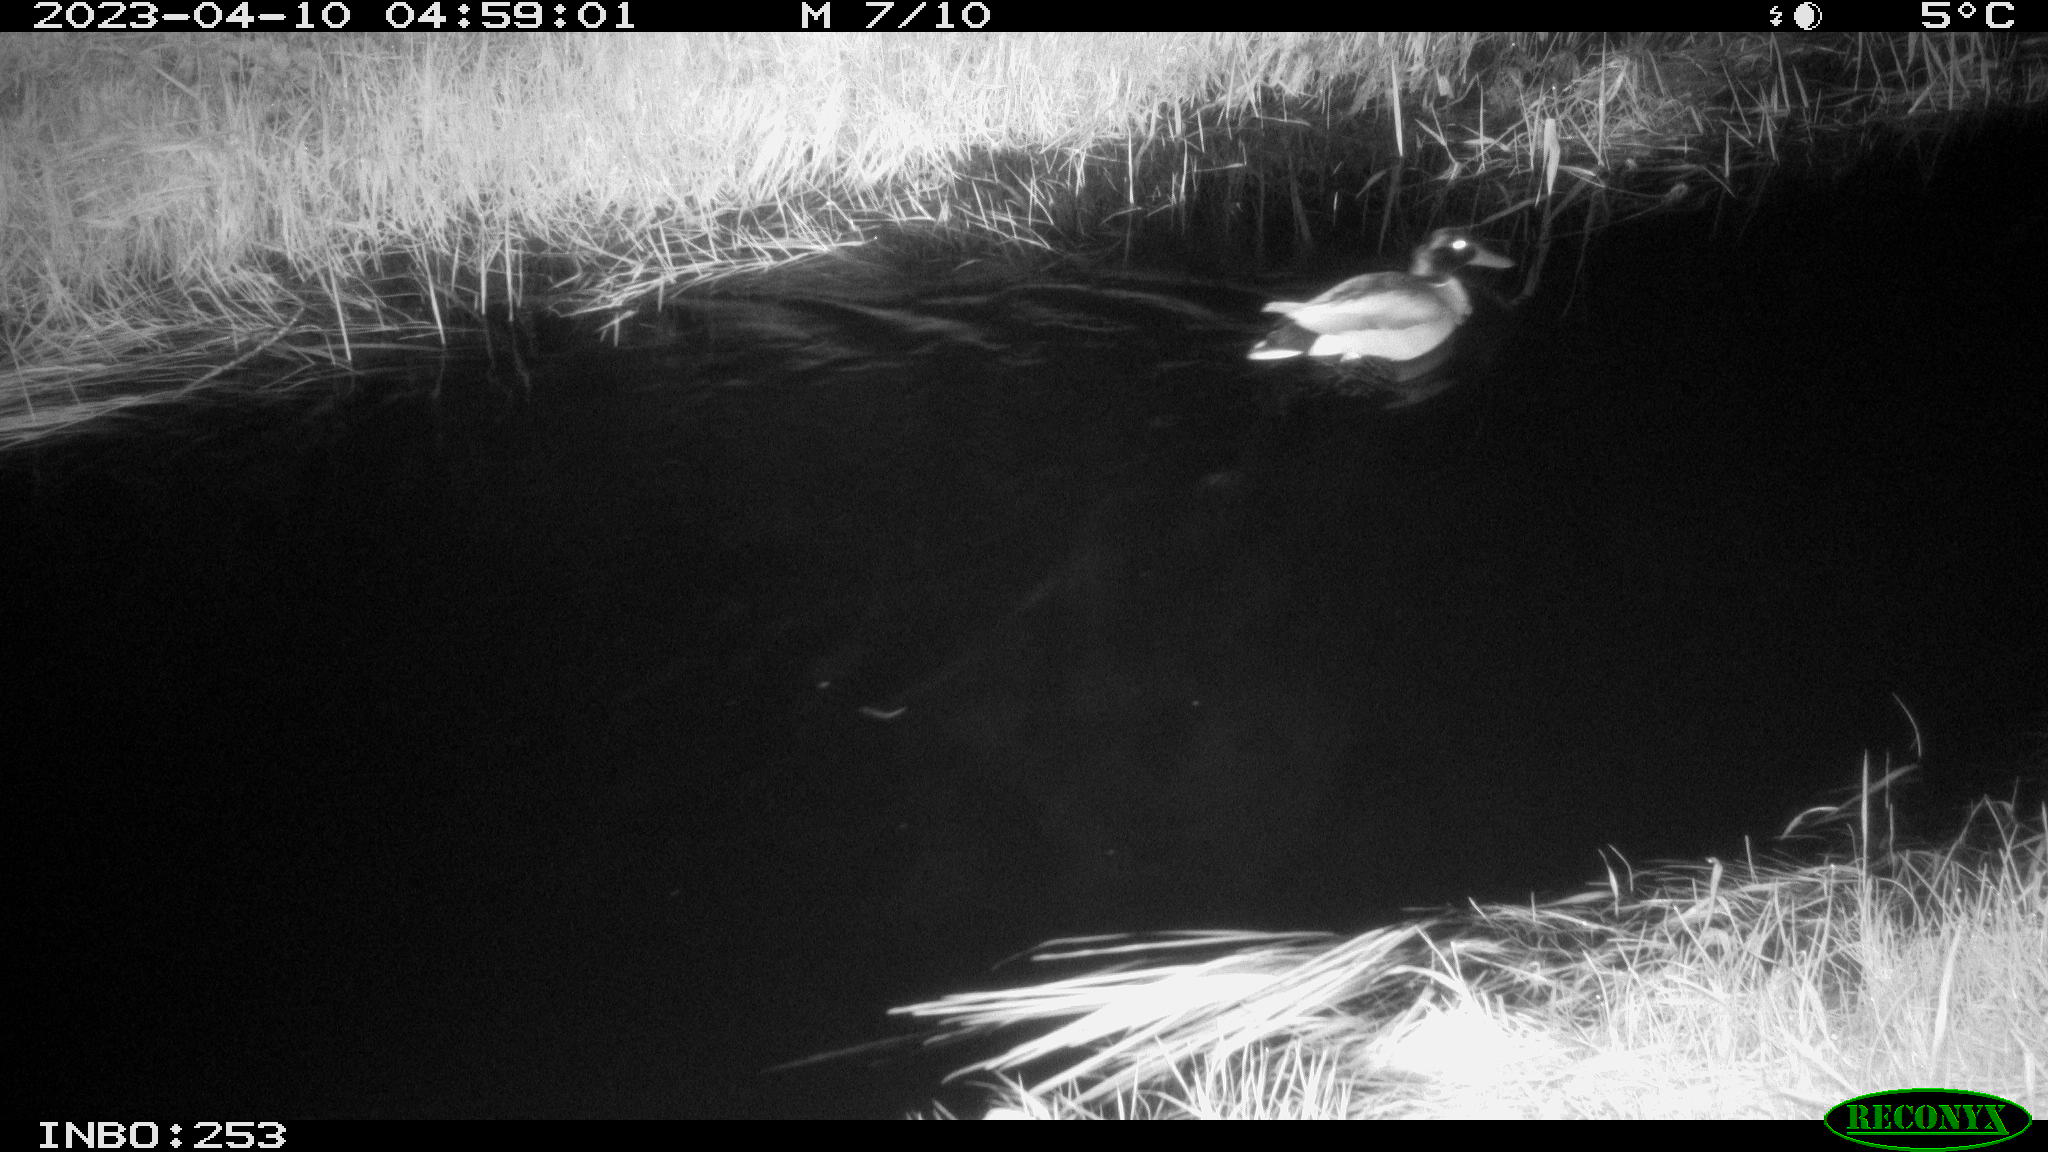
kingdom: Animalia
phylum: Chordata
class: Aves
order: Anseriformes
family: Anatidae
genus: Anas
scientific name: Anas
